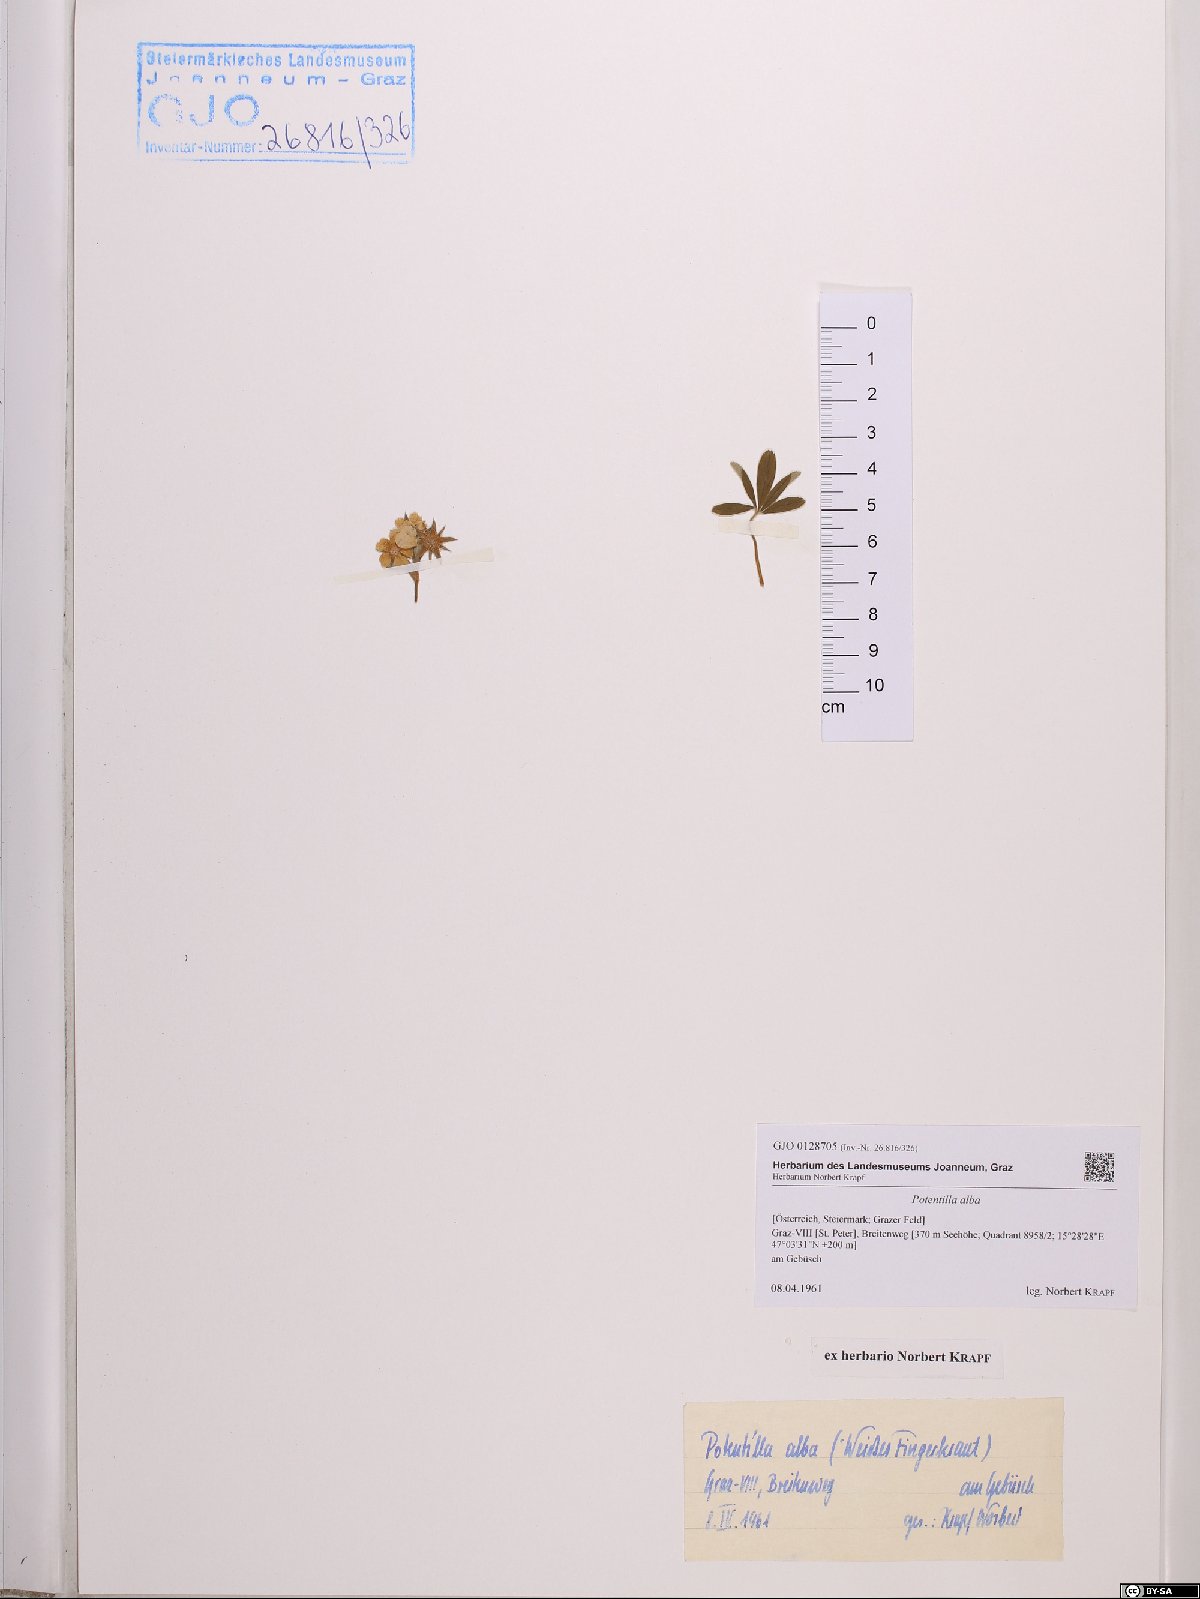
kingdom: Plantae
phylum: Tracheophyta
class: Magnoliopsida
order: Rosales
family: Rosaceae
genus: Potentilla
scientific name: Potentilla alba
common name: White cinquefoil
